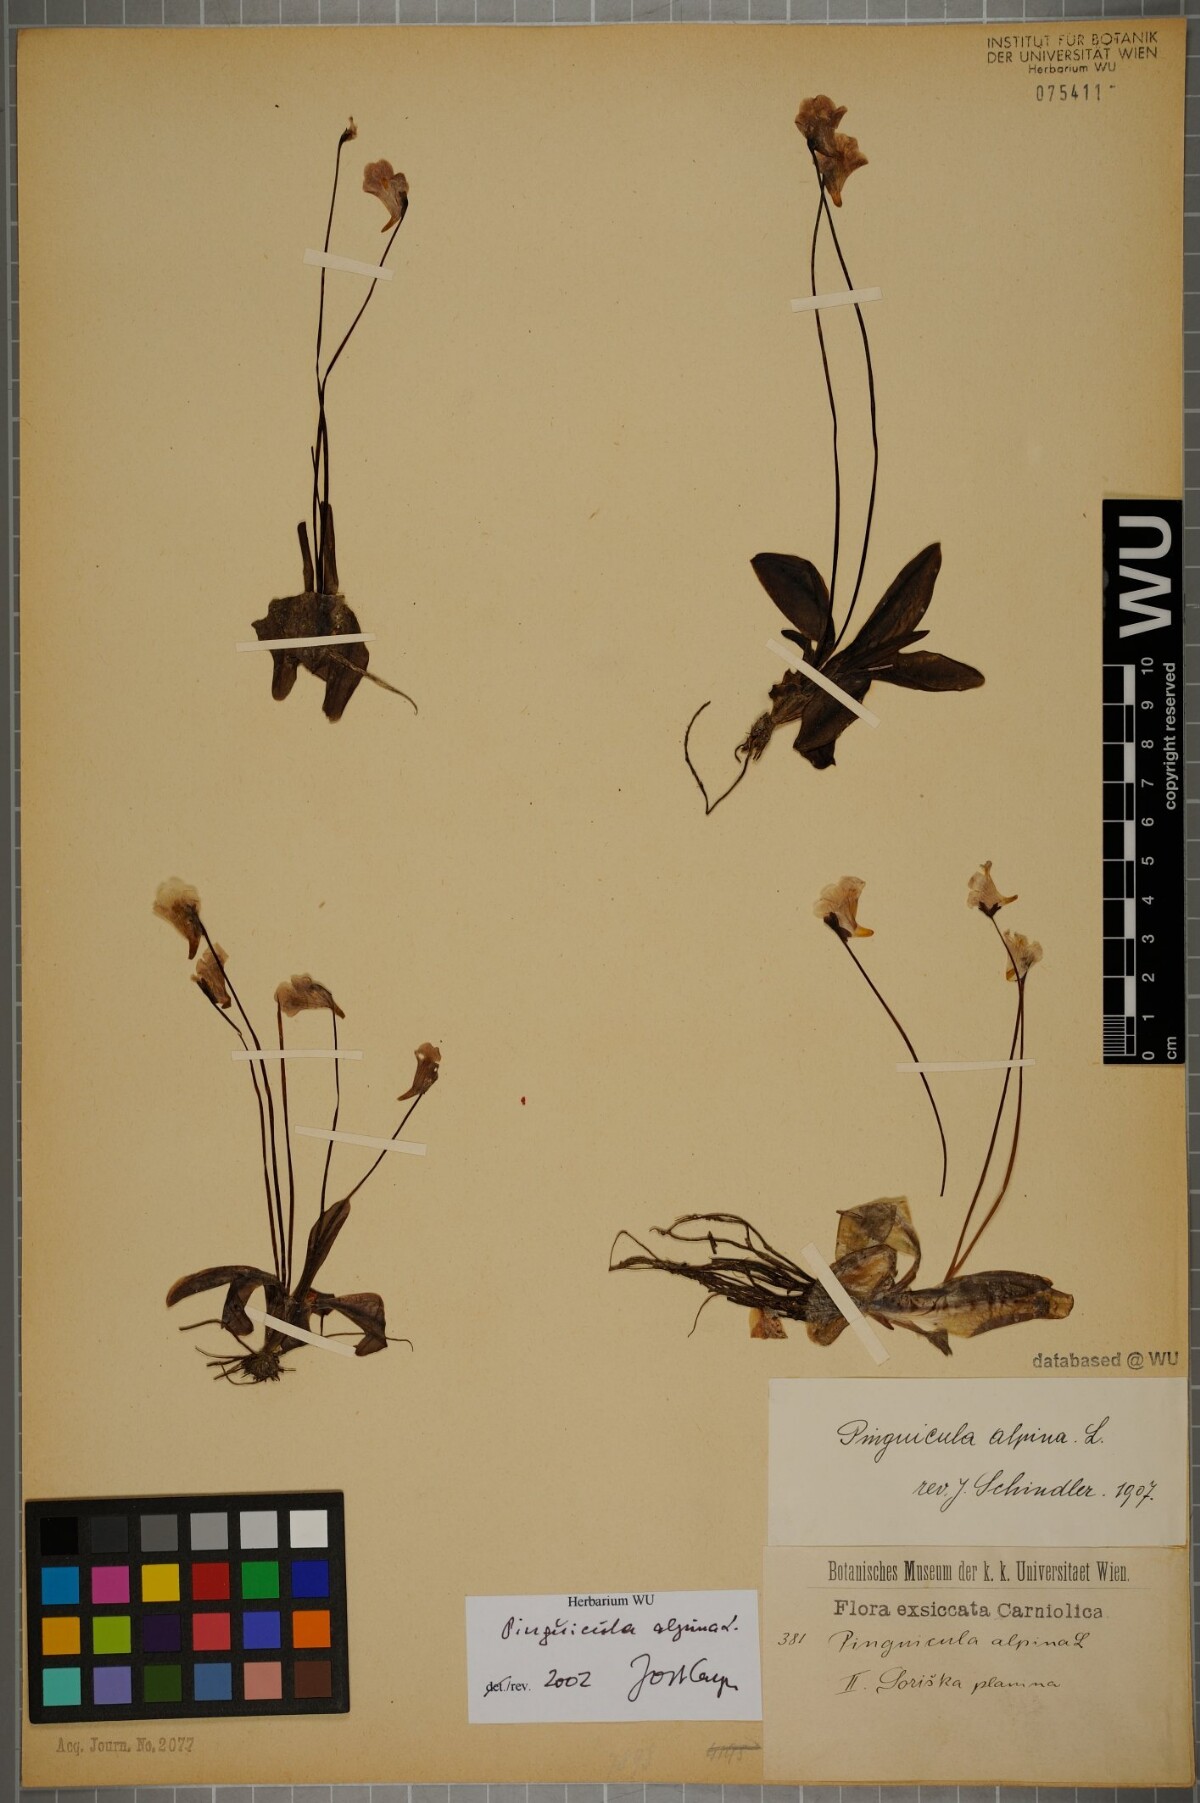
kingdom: Plantae
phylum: Tracheophyta
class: Magnoliopsida
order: Lamiales
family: Lentibulariaceae
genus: Pinguicula
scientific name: Pinguicula alpina
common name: Alpine butterwort
